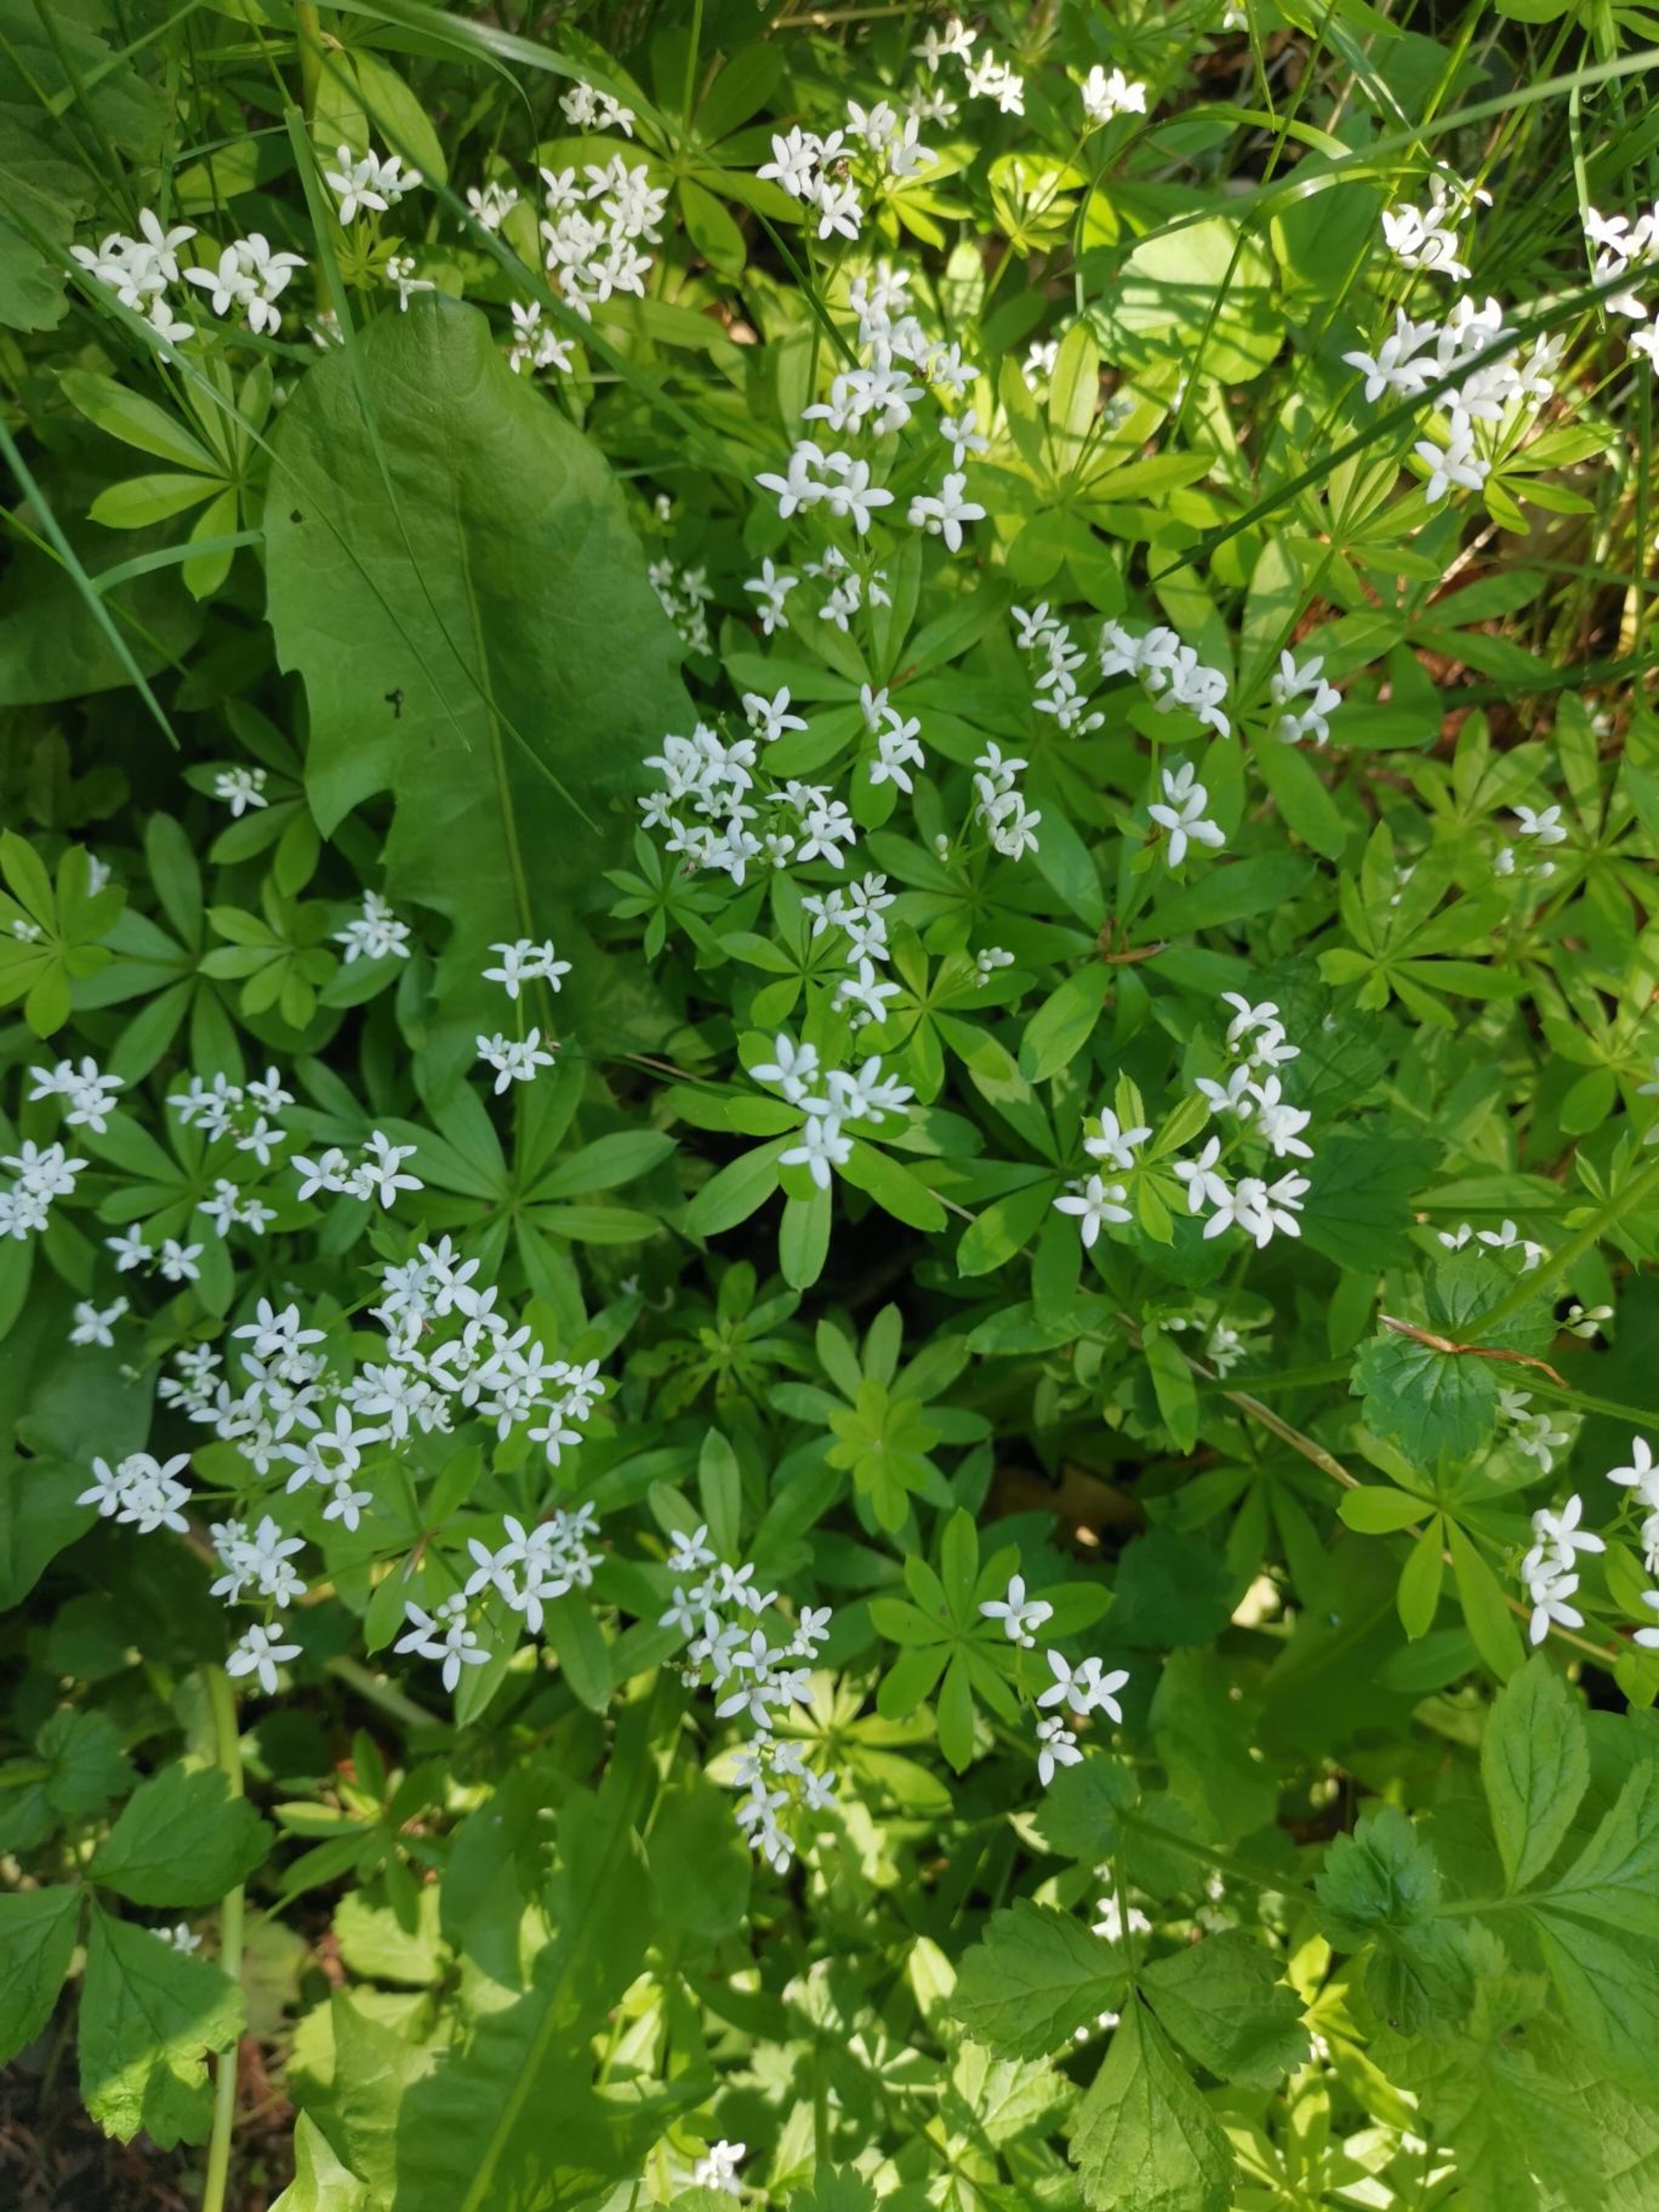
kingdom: Plantae
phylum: Tracheophyta
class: Magnoliopsida
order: Gentianales
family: Rubiaceae
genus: Galium
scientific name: Galium odoratum
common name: Skovmærke
